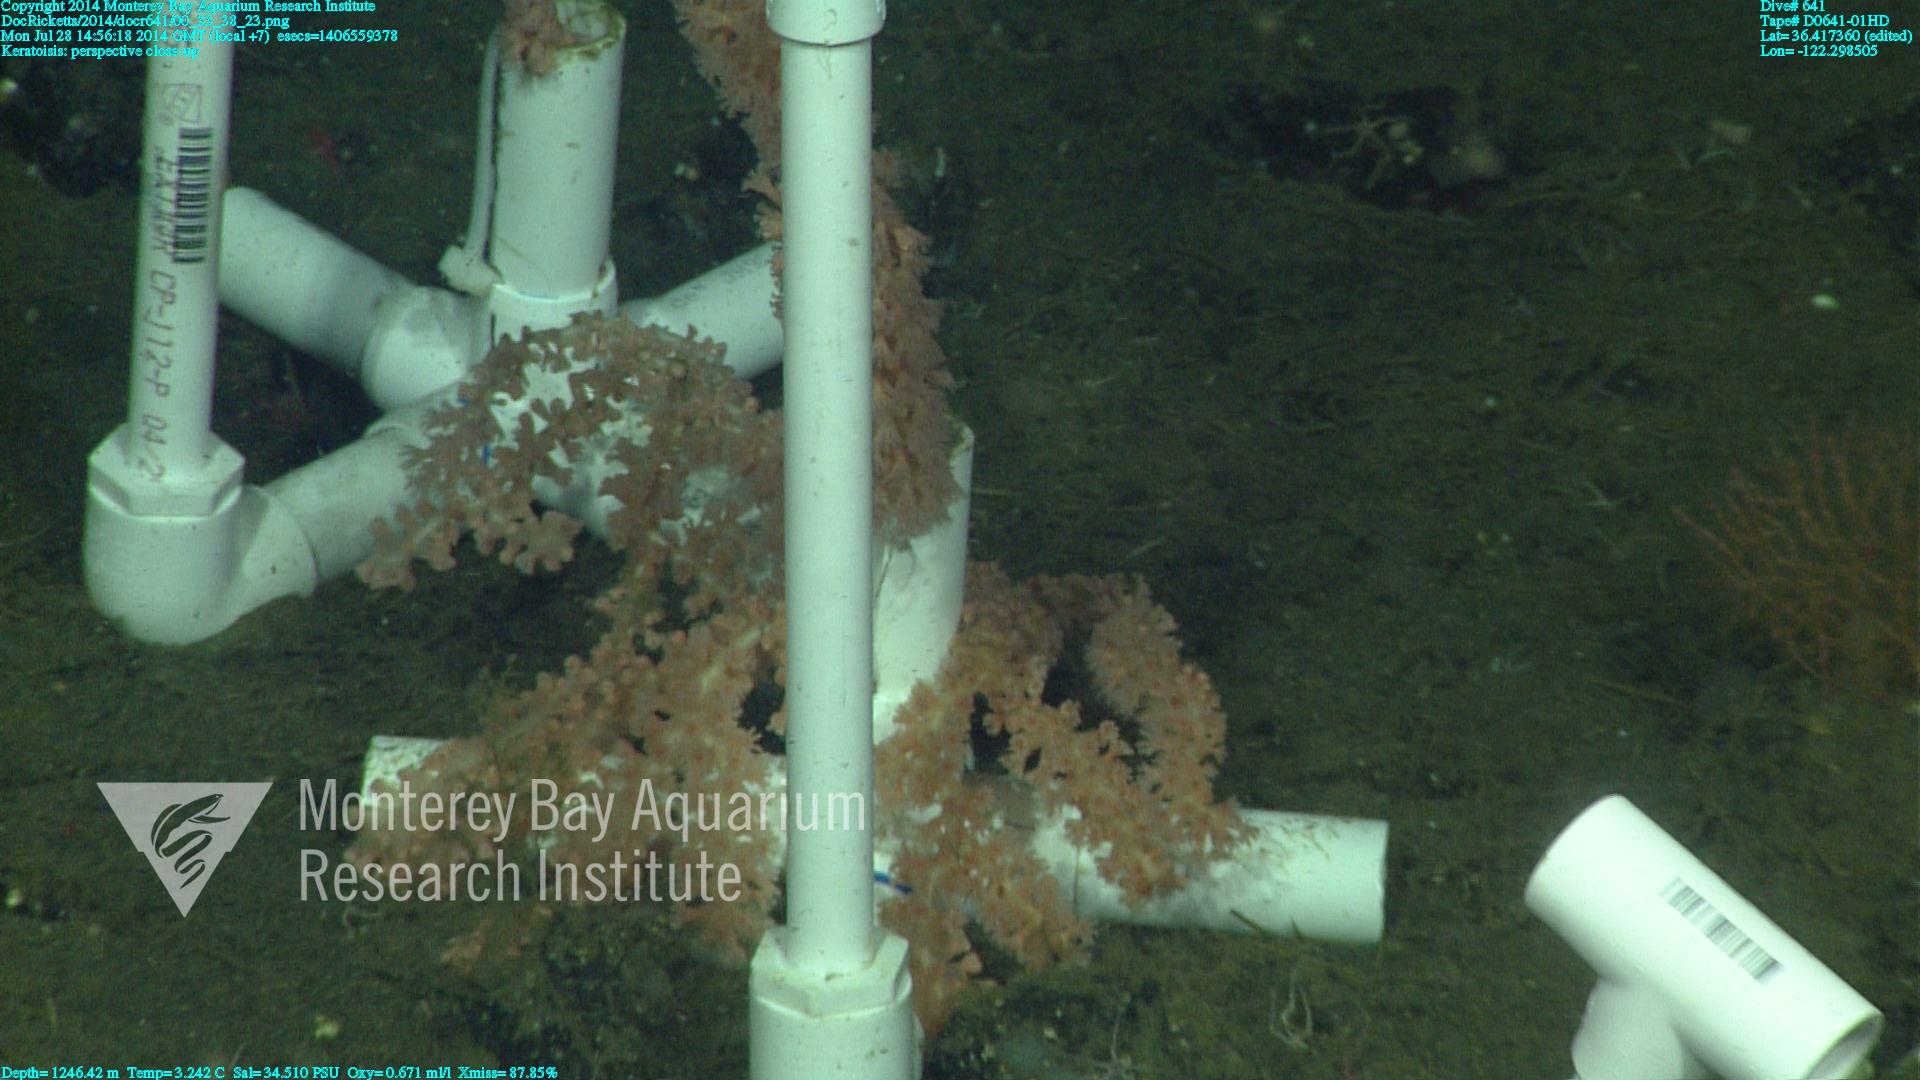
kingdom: Animalia
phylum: Cnidaria
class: Anthozoa
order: Scleralcyonacea
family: Keratoisididae
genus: Keratoisis
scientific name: Keratoisis
